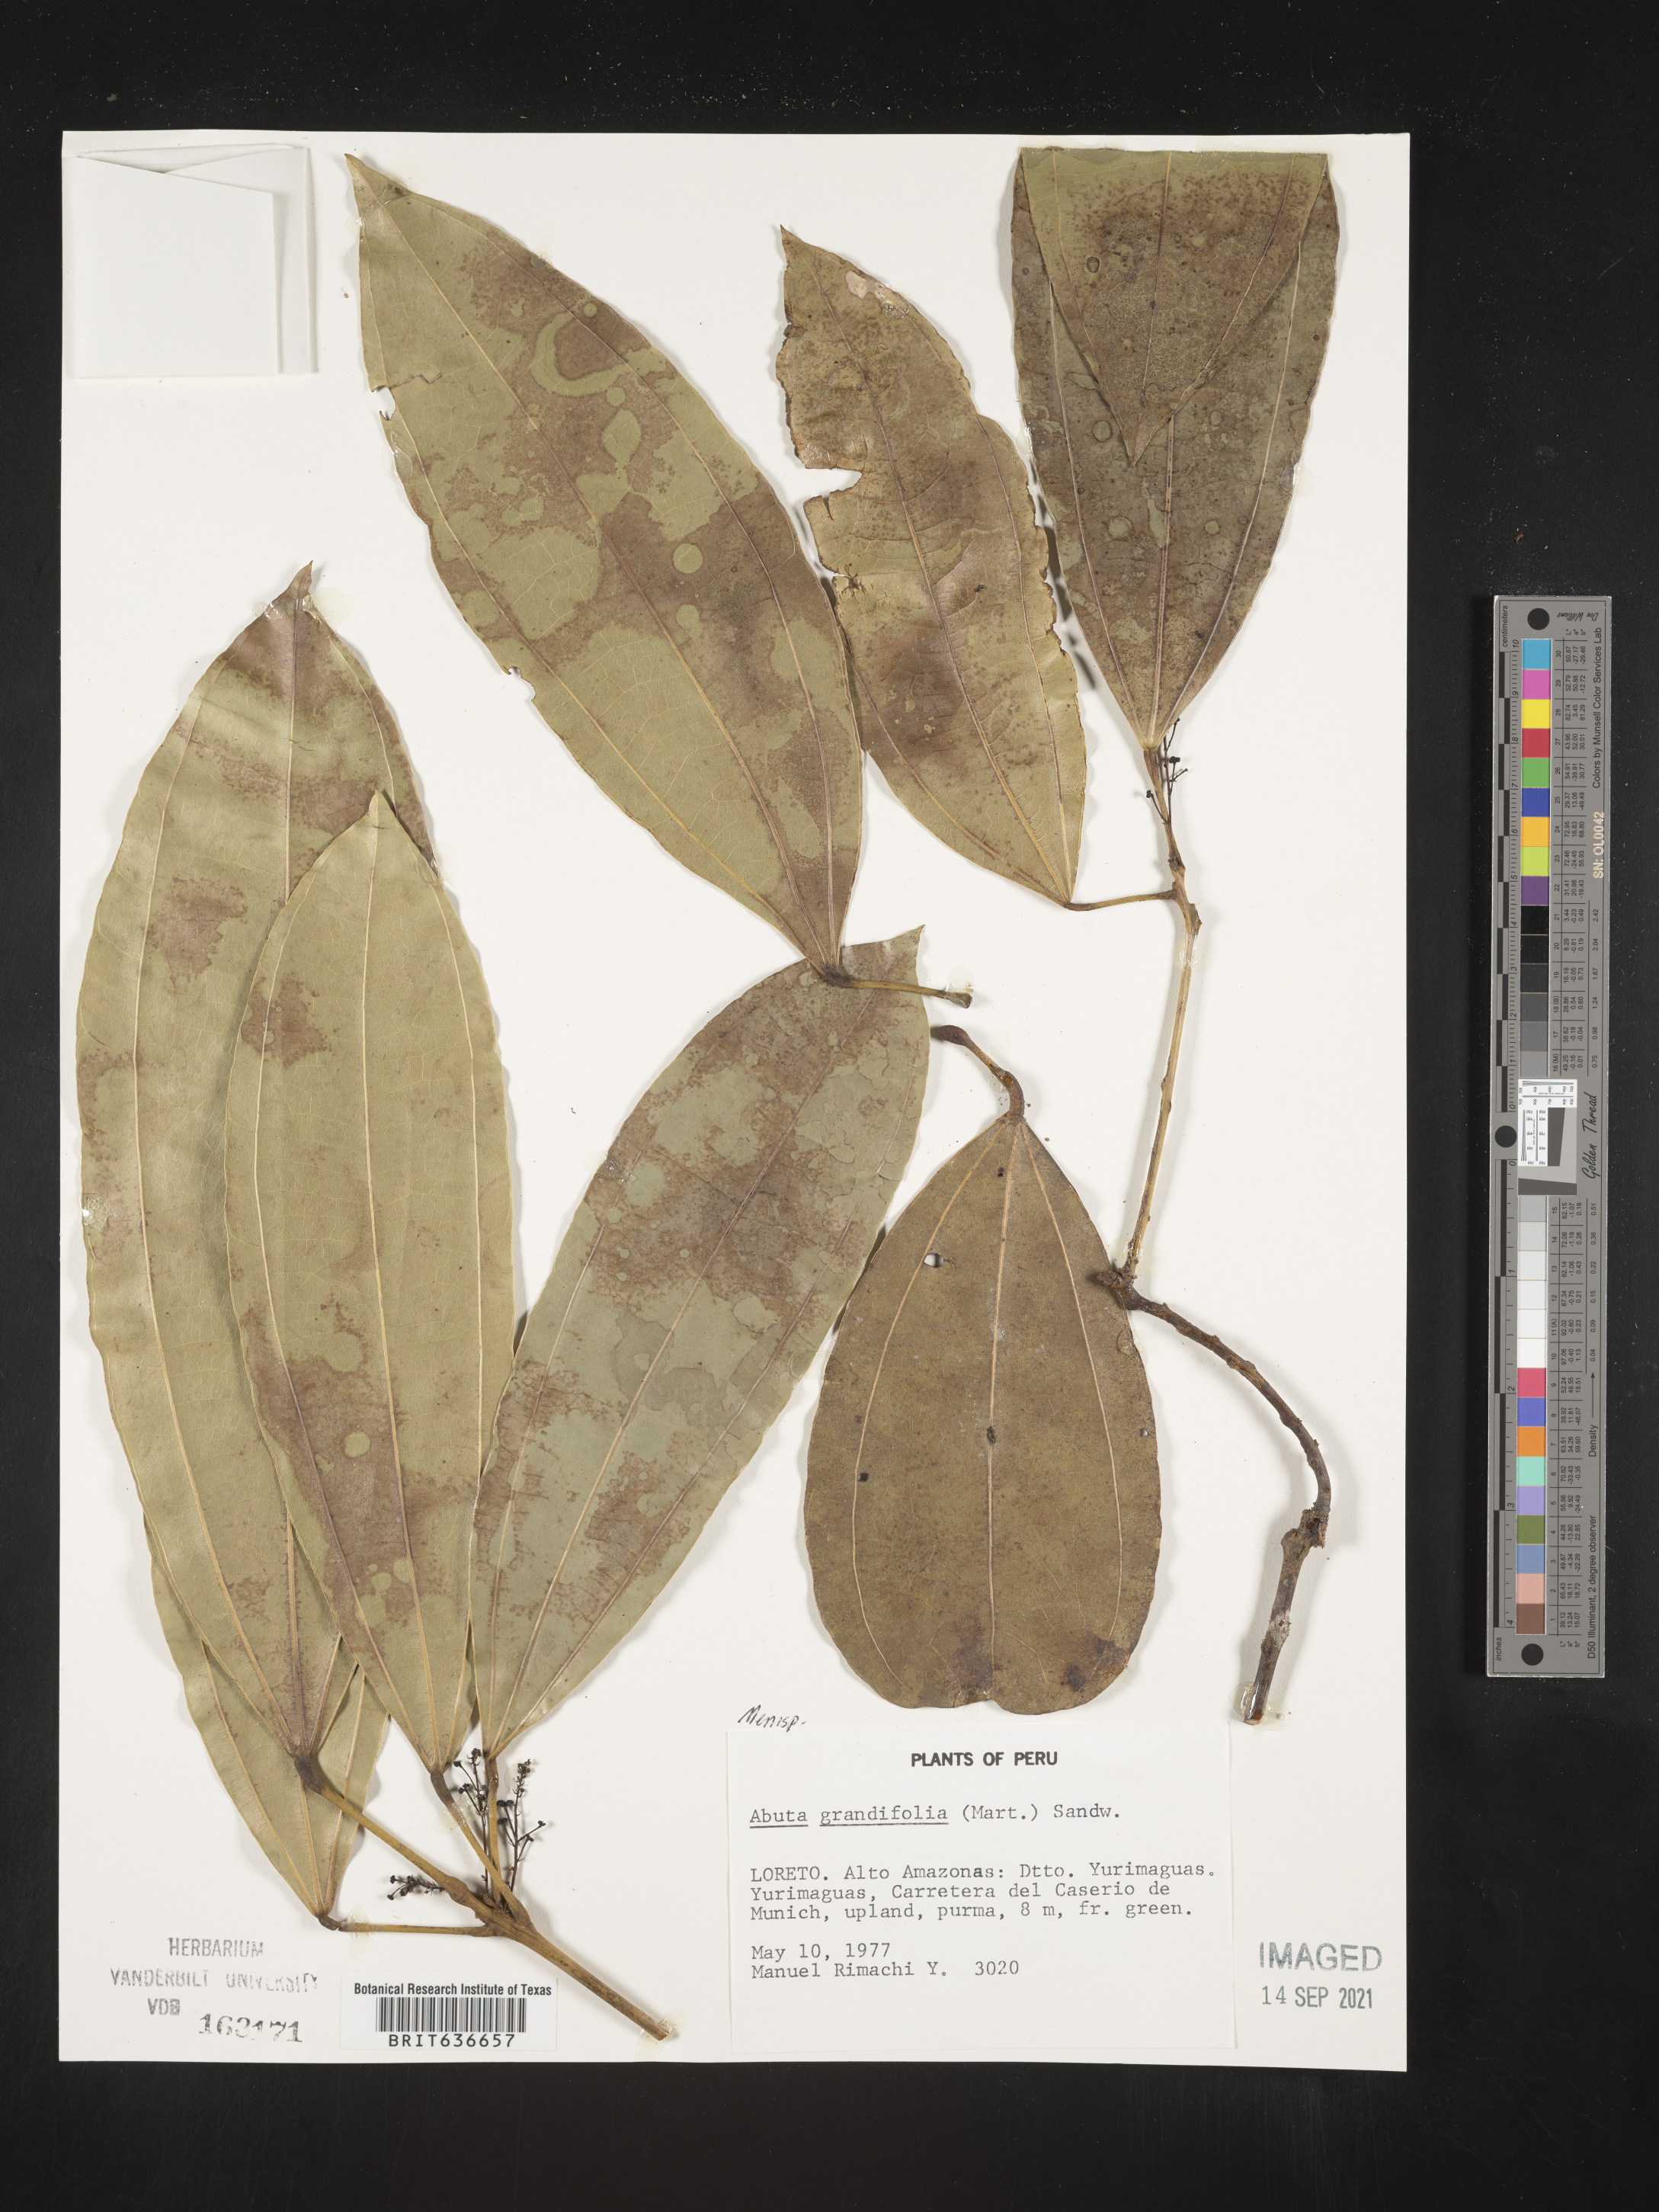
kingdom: Plantae
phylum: Tracheophyta
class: Magnoliopsida
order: Ranunculales
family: Menispermaceae
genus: Abuta
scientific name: Abuta
